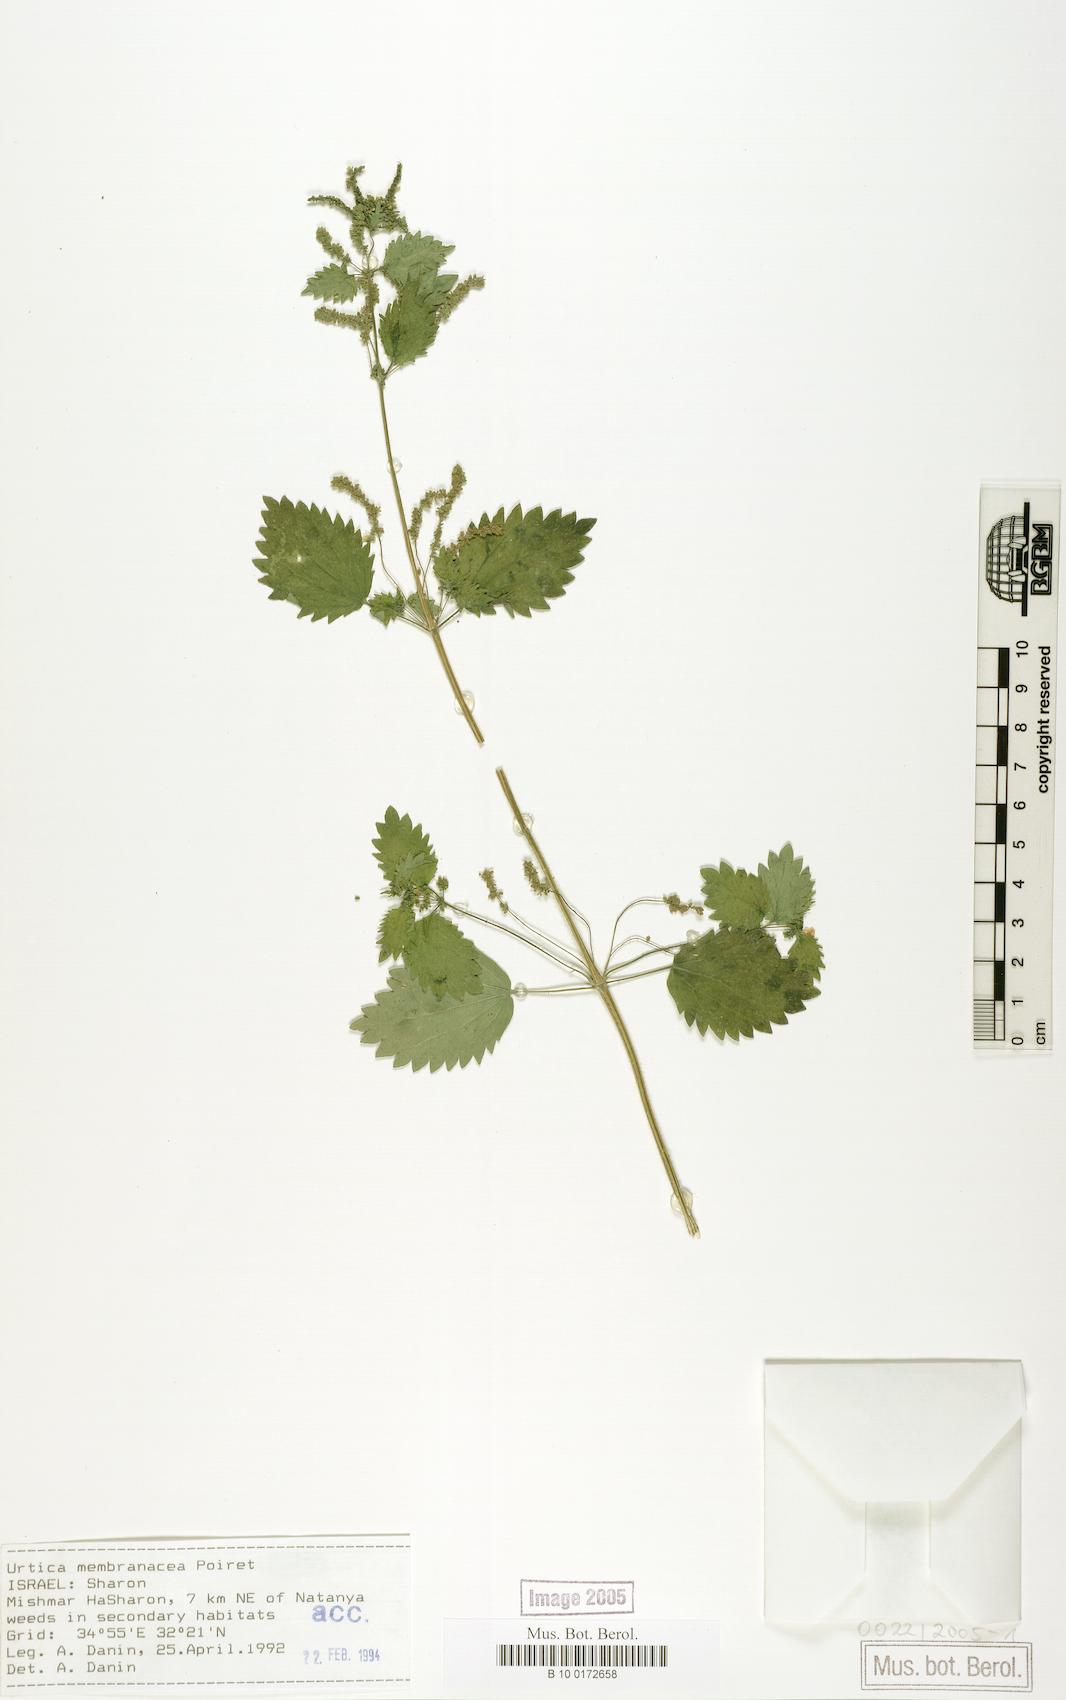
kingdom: Plantae
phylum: Tracheophyta
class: Magnoliopsida
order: Rosales
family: Urticaceae
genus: Urtica
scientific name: Urtica membranacea
